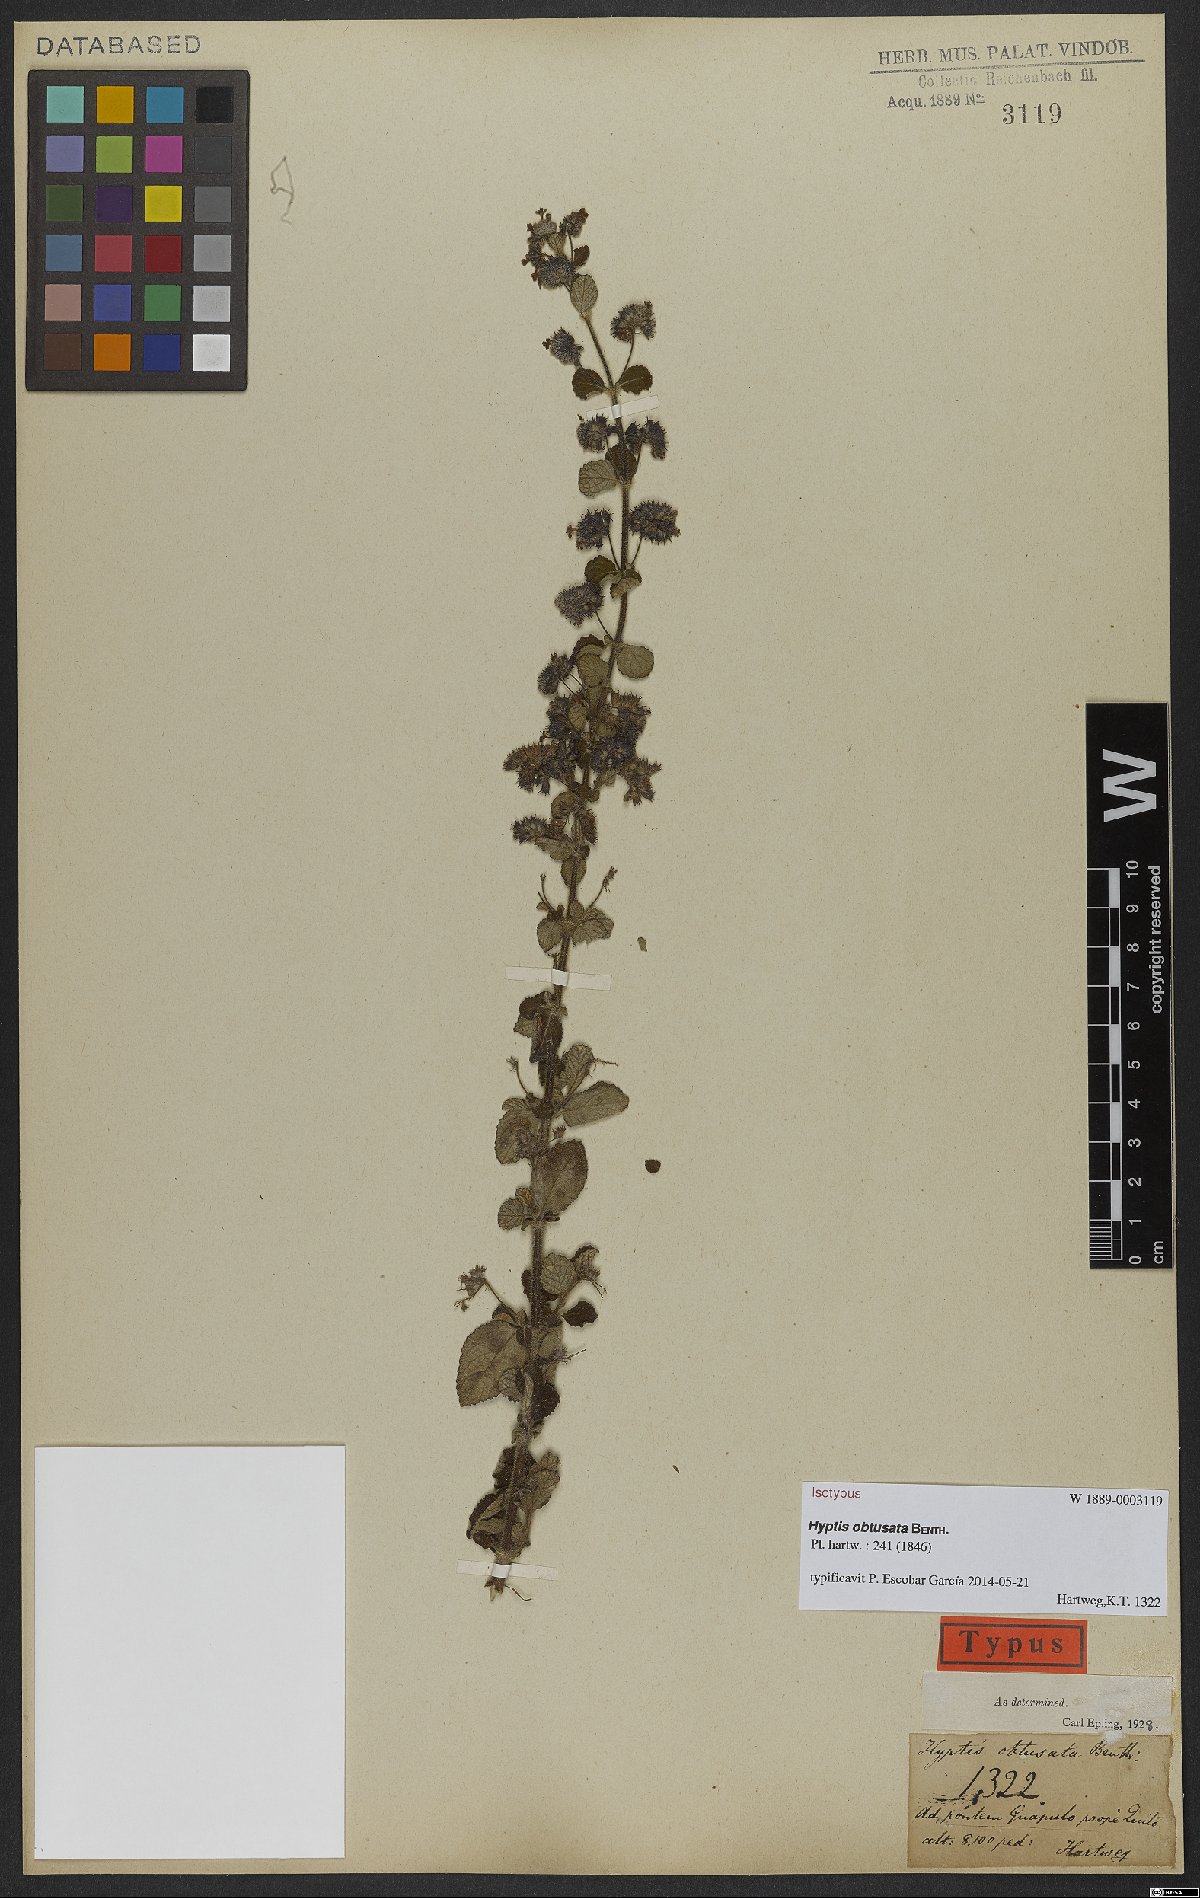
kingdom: Plantae
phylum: Tracheophyta
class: Magnoliopsida
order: Lamiales
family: Lamiaceae
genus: Mesosphaerum
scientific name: Mesosphaerum obtusatum
